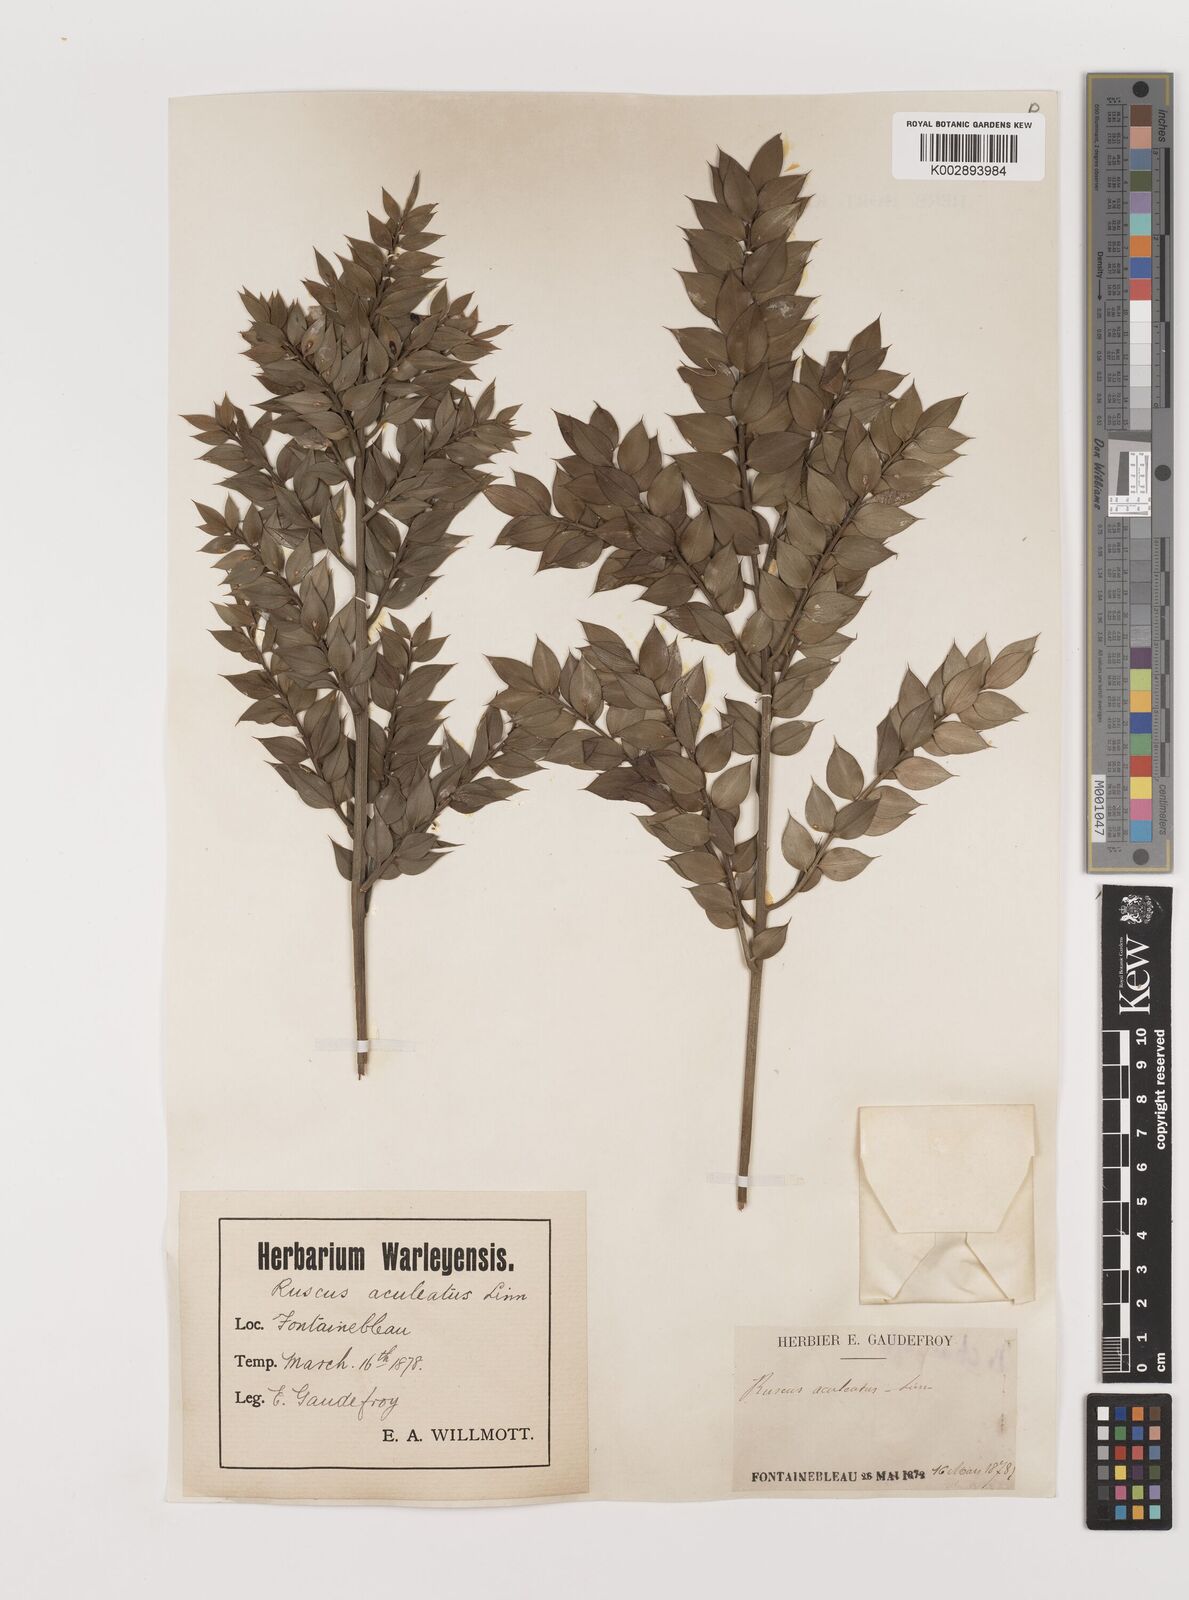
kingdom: Plantae
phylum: Tracheophyta
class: Liliopsida
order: Asparagales
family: Asparagaceae
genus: Ruscus
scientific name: Ruscus aculeatus
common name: Butcher's-broom
